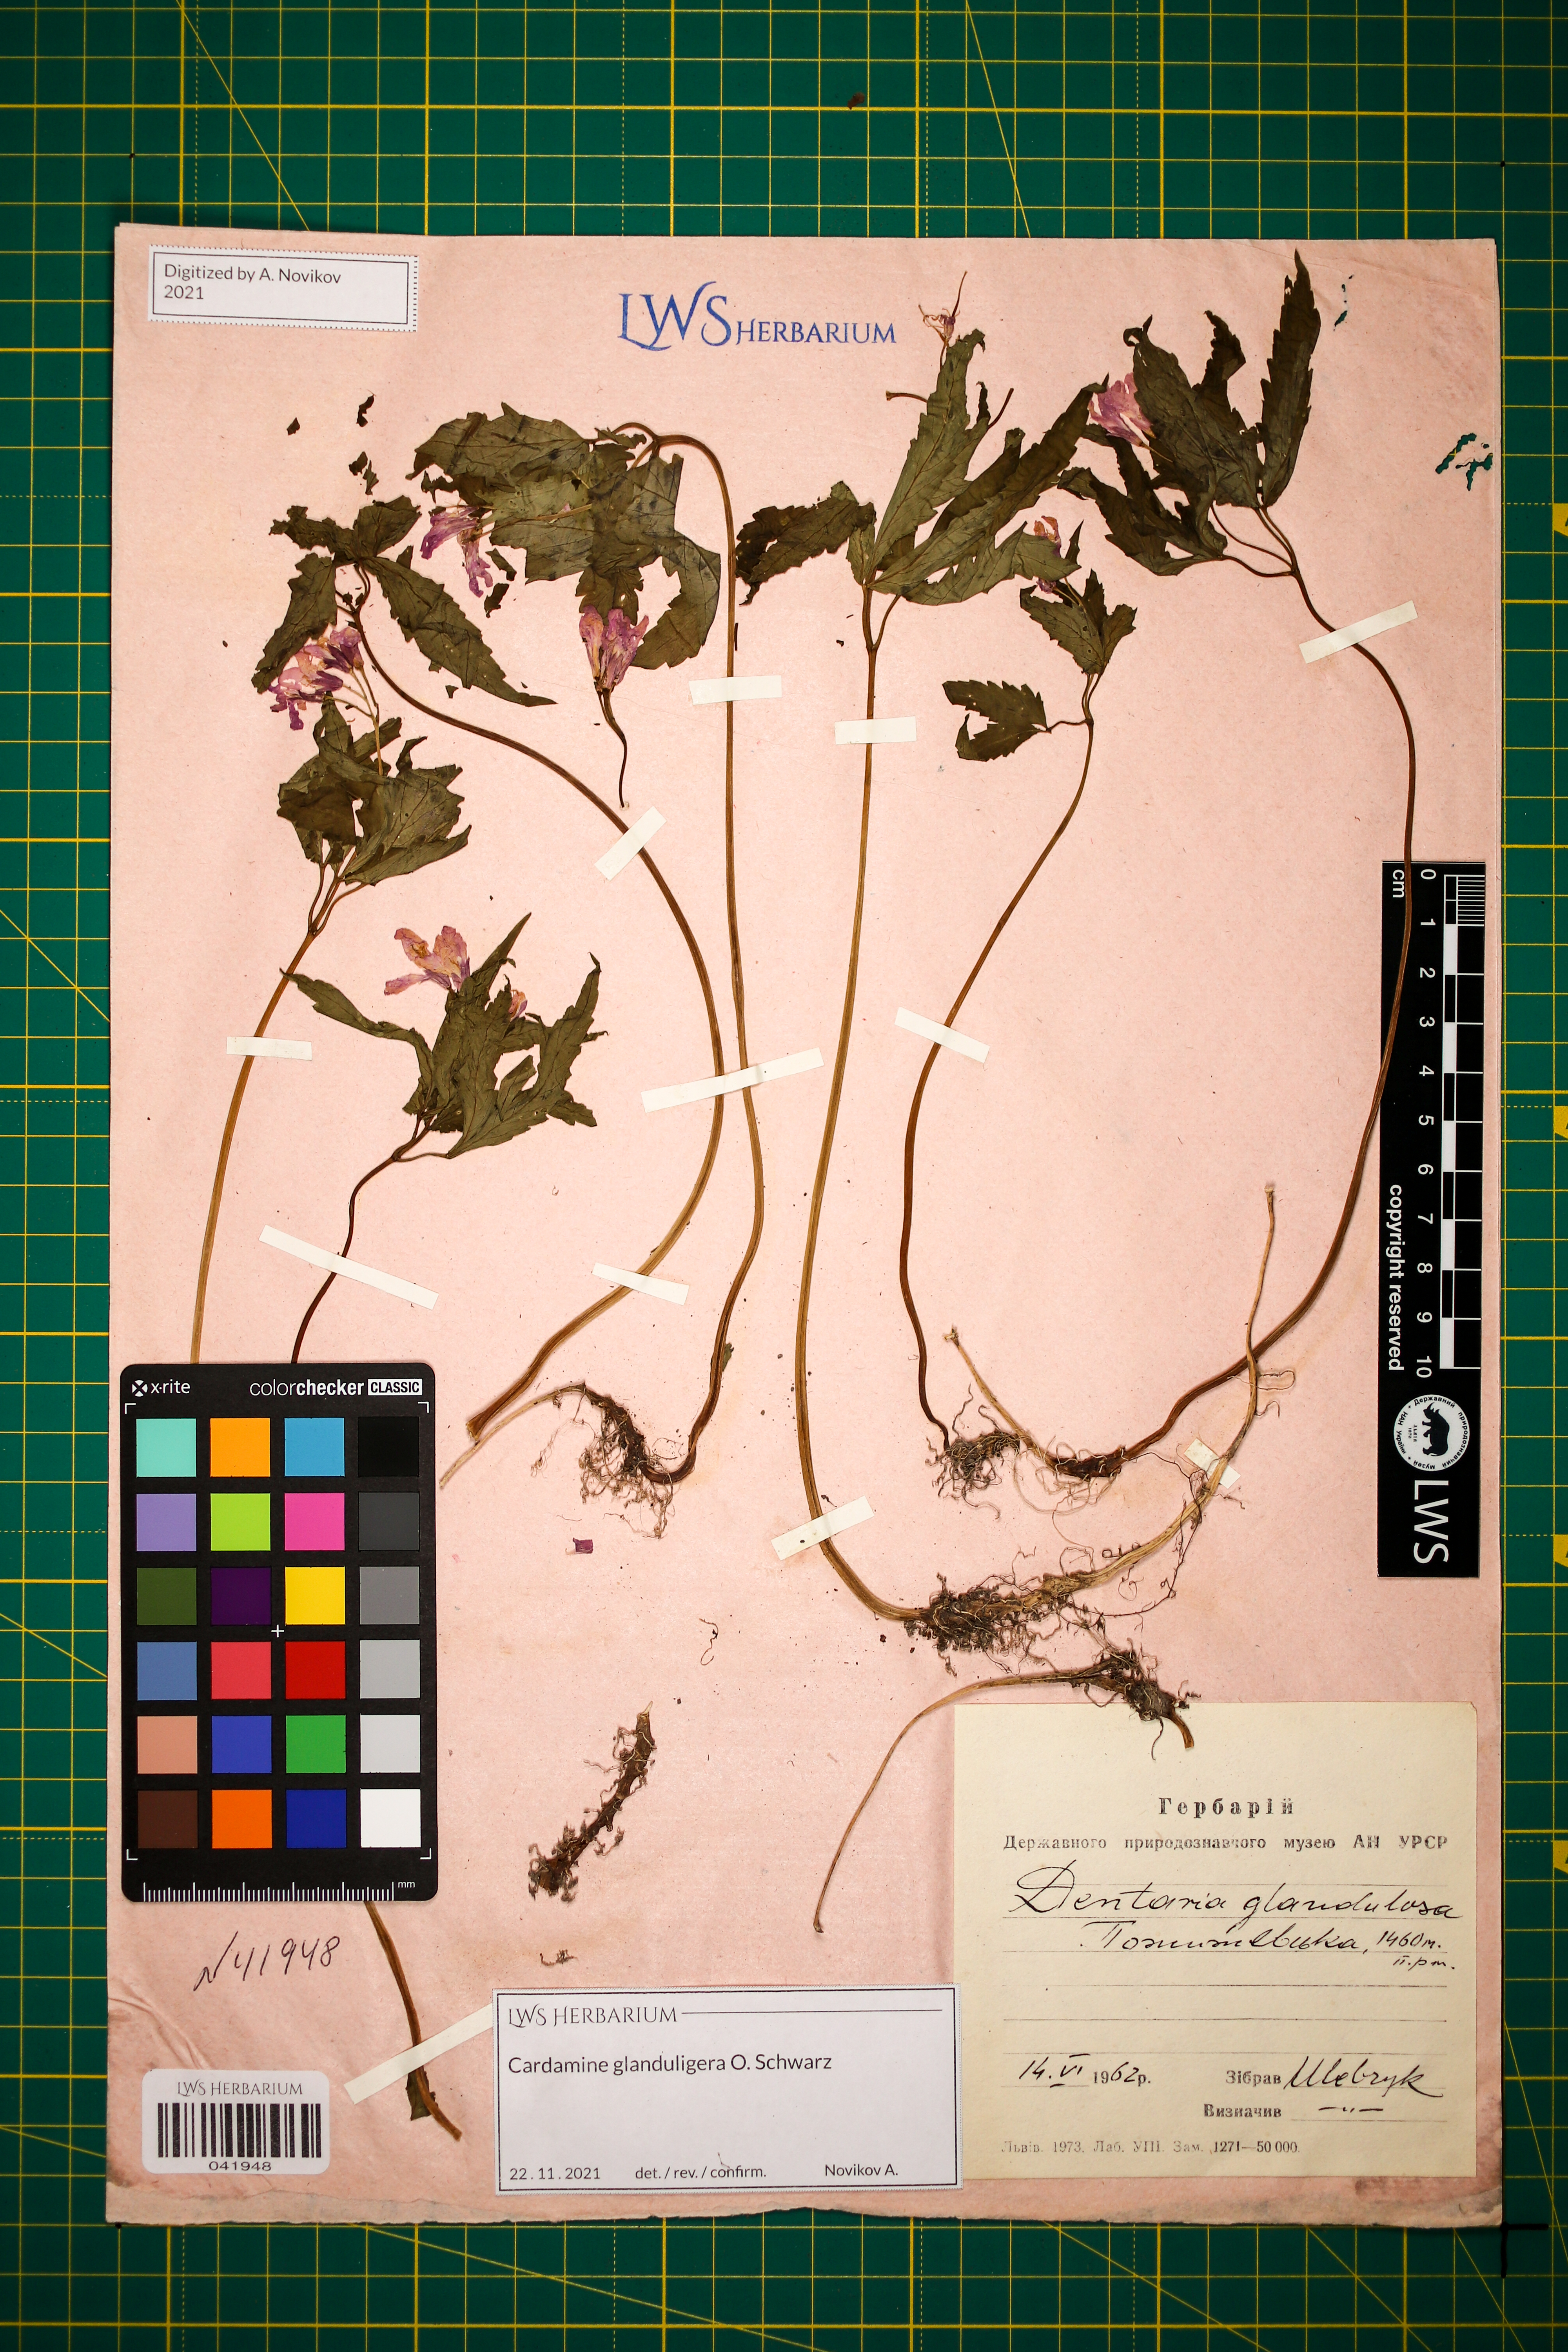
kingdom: Plantae
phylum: Tracheophyta
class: Magnoliopsida
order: Brassicales
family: Brassicaceae
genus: Cardamine
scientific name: Cardamine glanduligera
